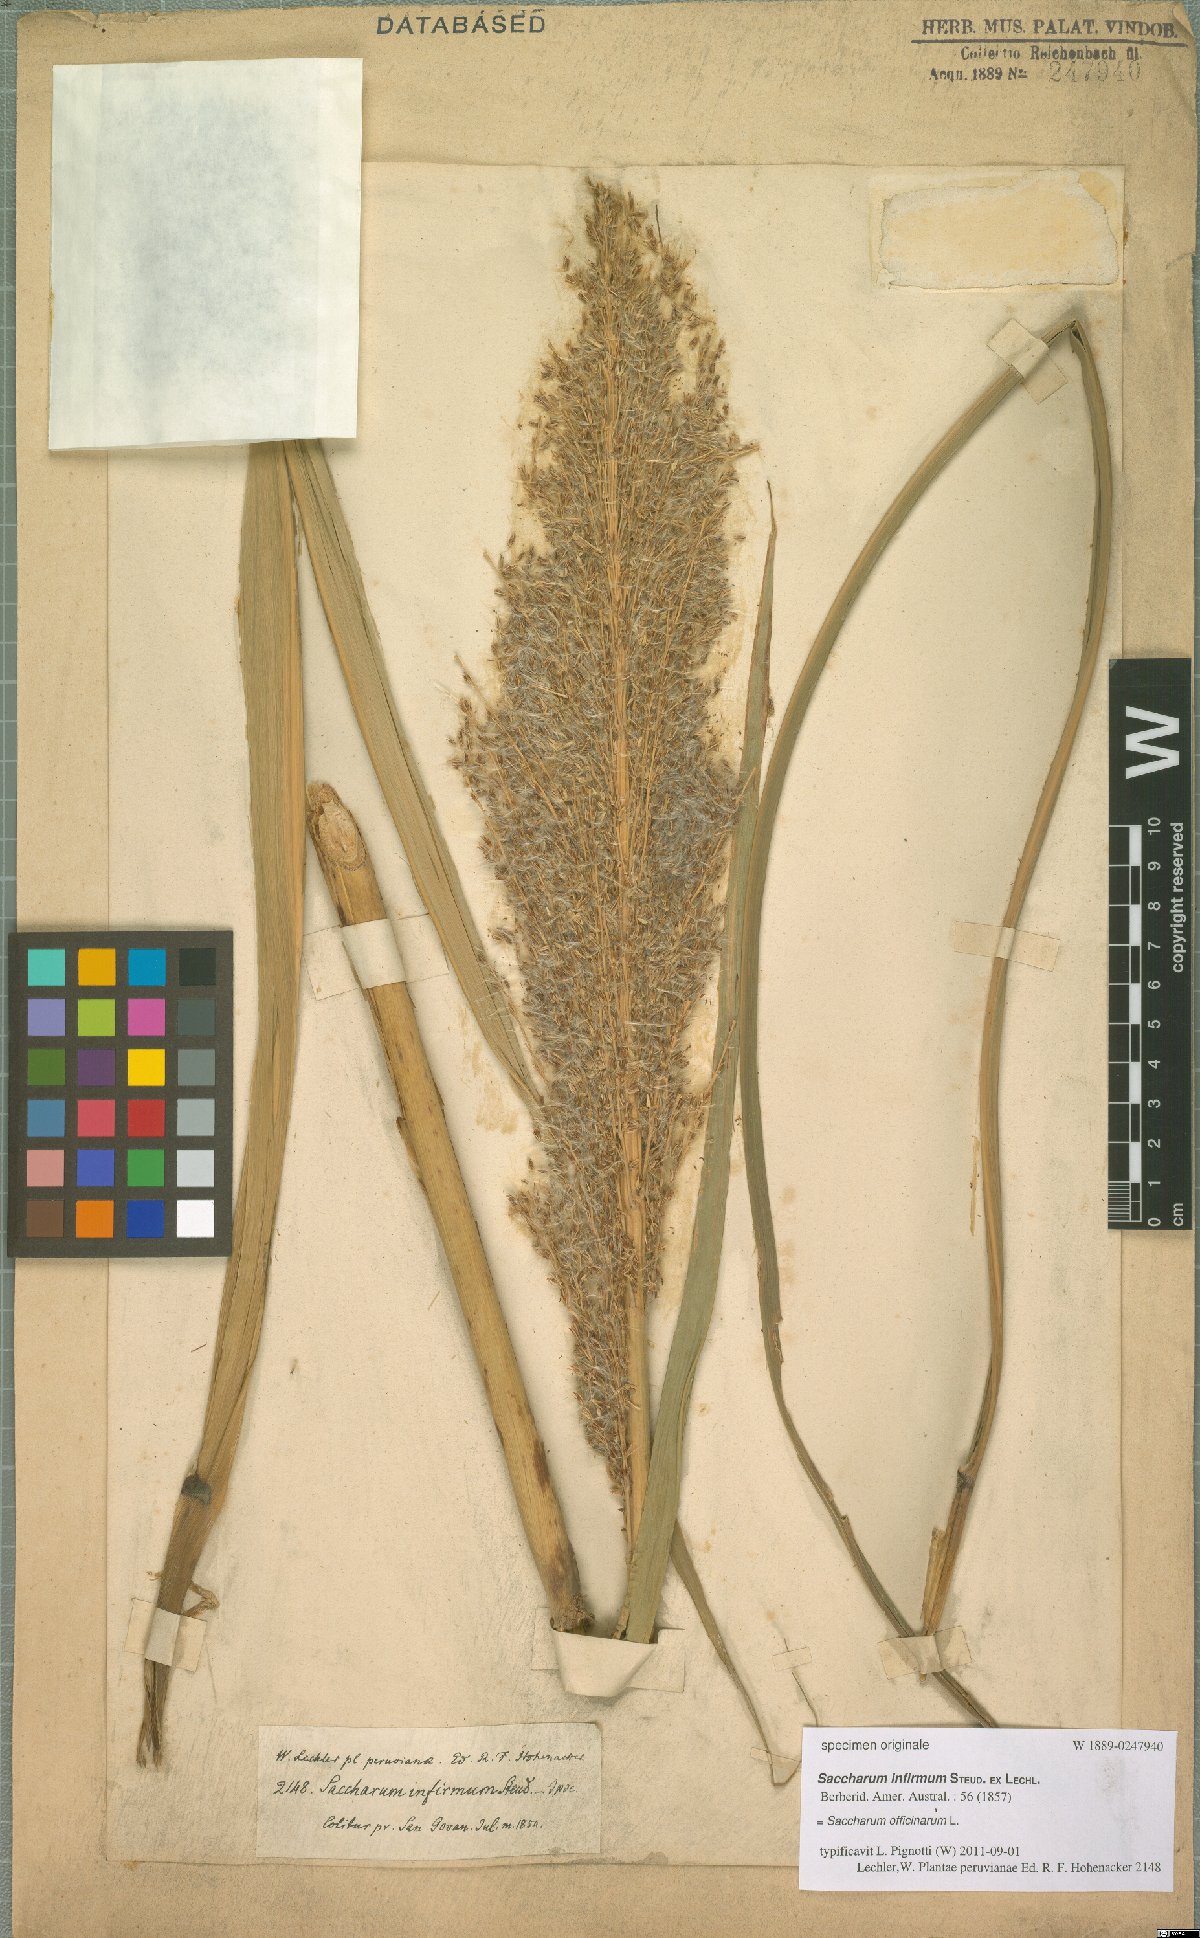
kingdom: Plantae
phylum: Tracheophyta
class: Liliopsida
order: Poales
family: Poaceae
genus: Saccharum
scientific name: Saccharum officinarum
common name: Sugarcane
